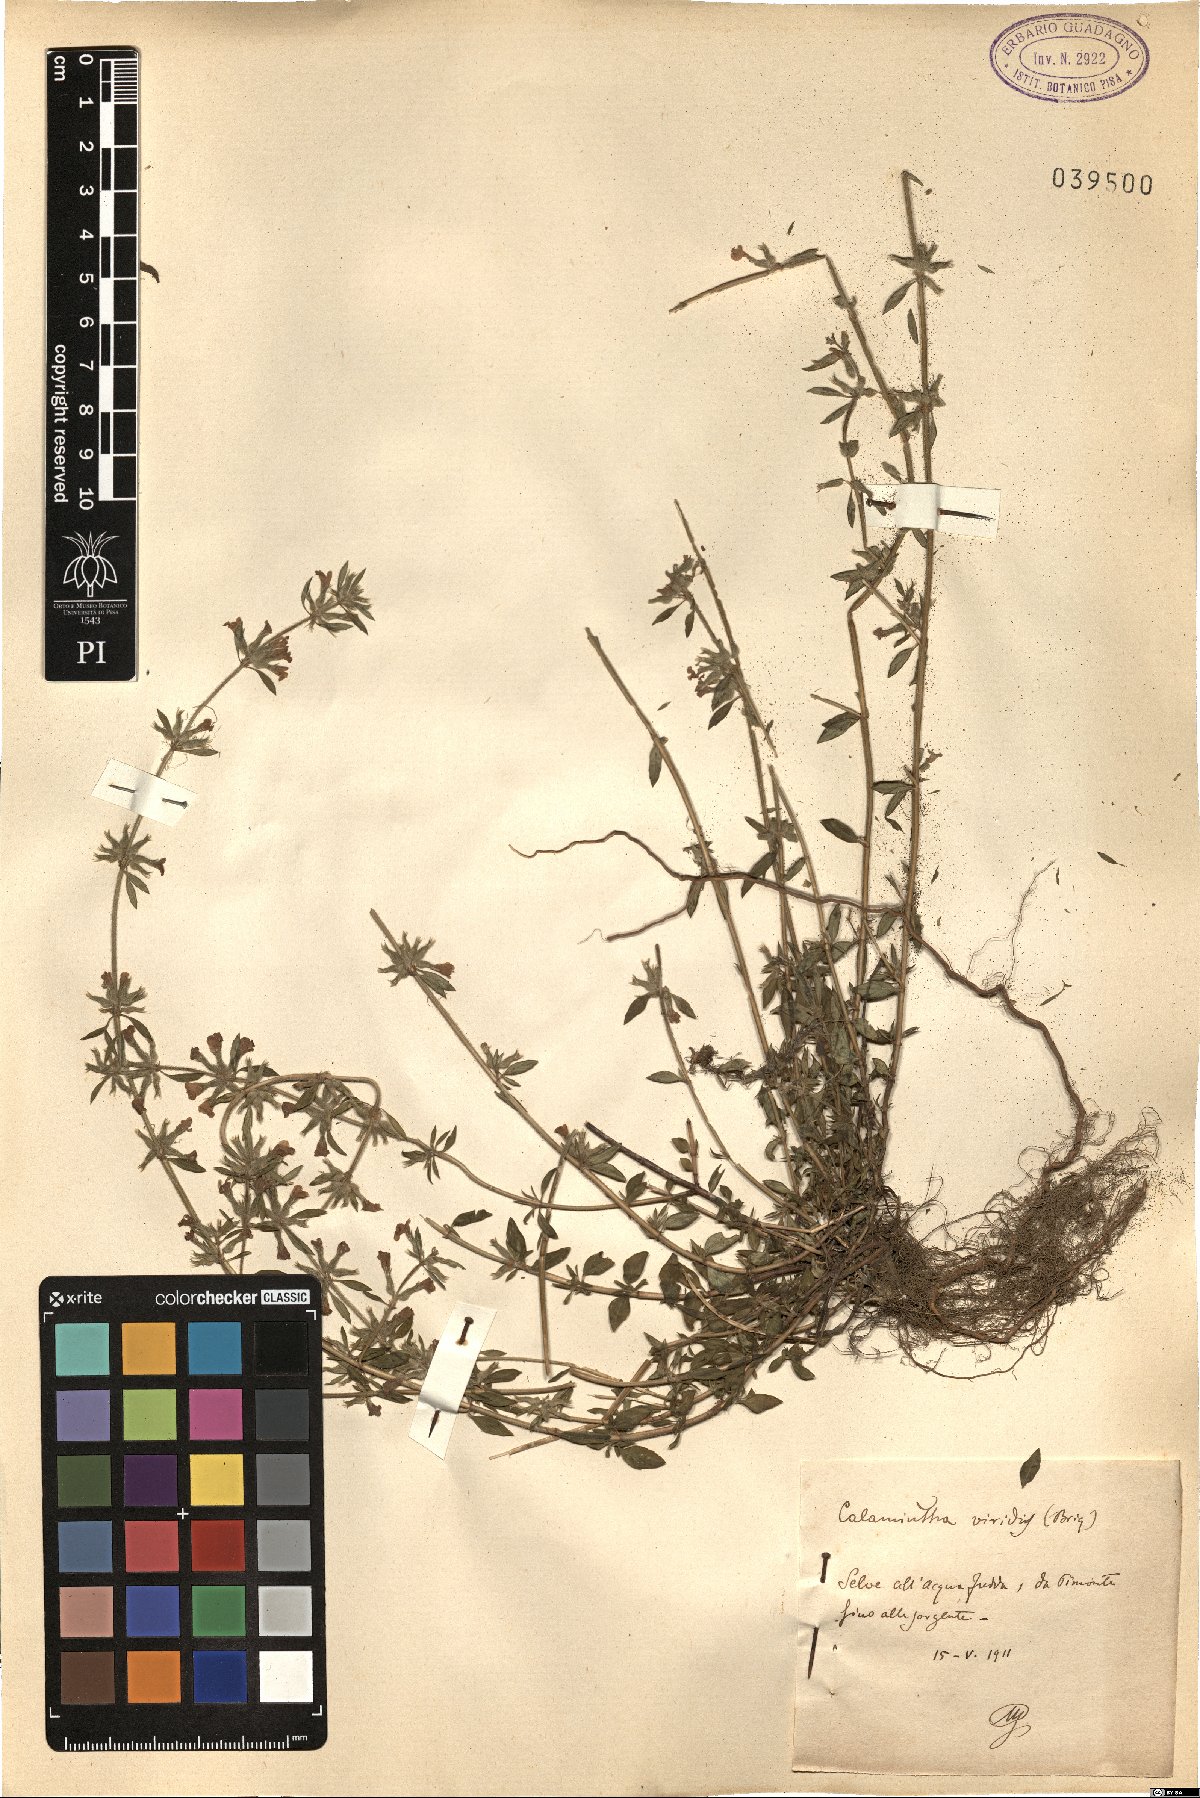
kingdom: Plantae
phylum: Tracheophyta
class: Magnoliopsida
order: Lamiales
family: Lamiaceae
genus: Calamintha
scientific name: Calamintha
